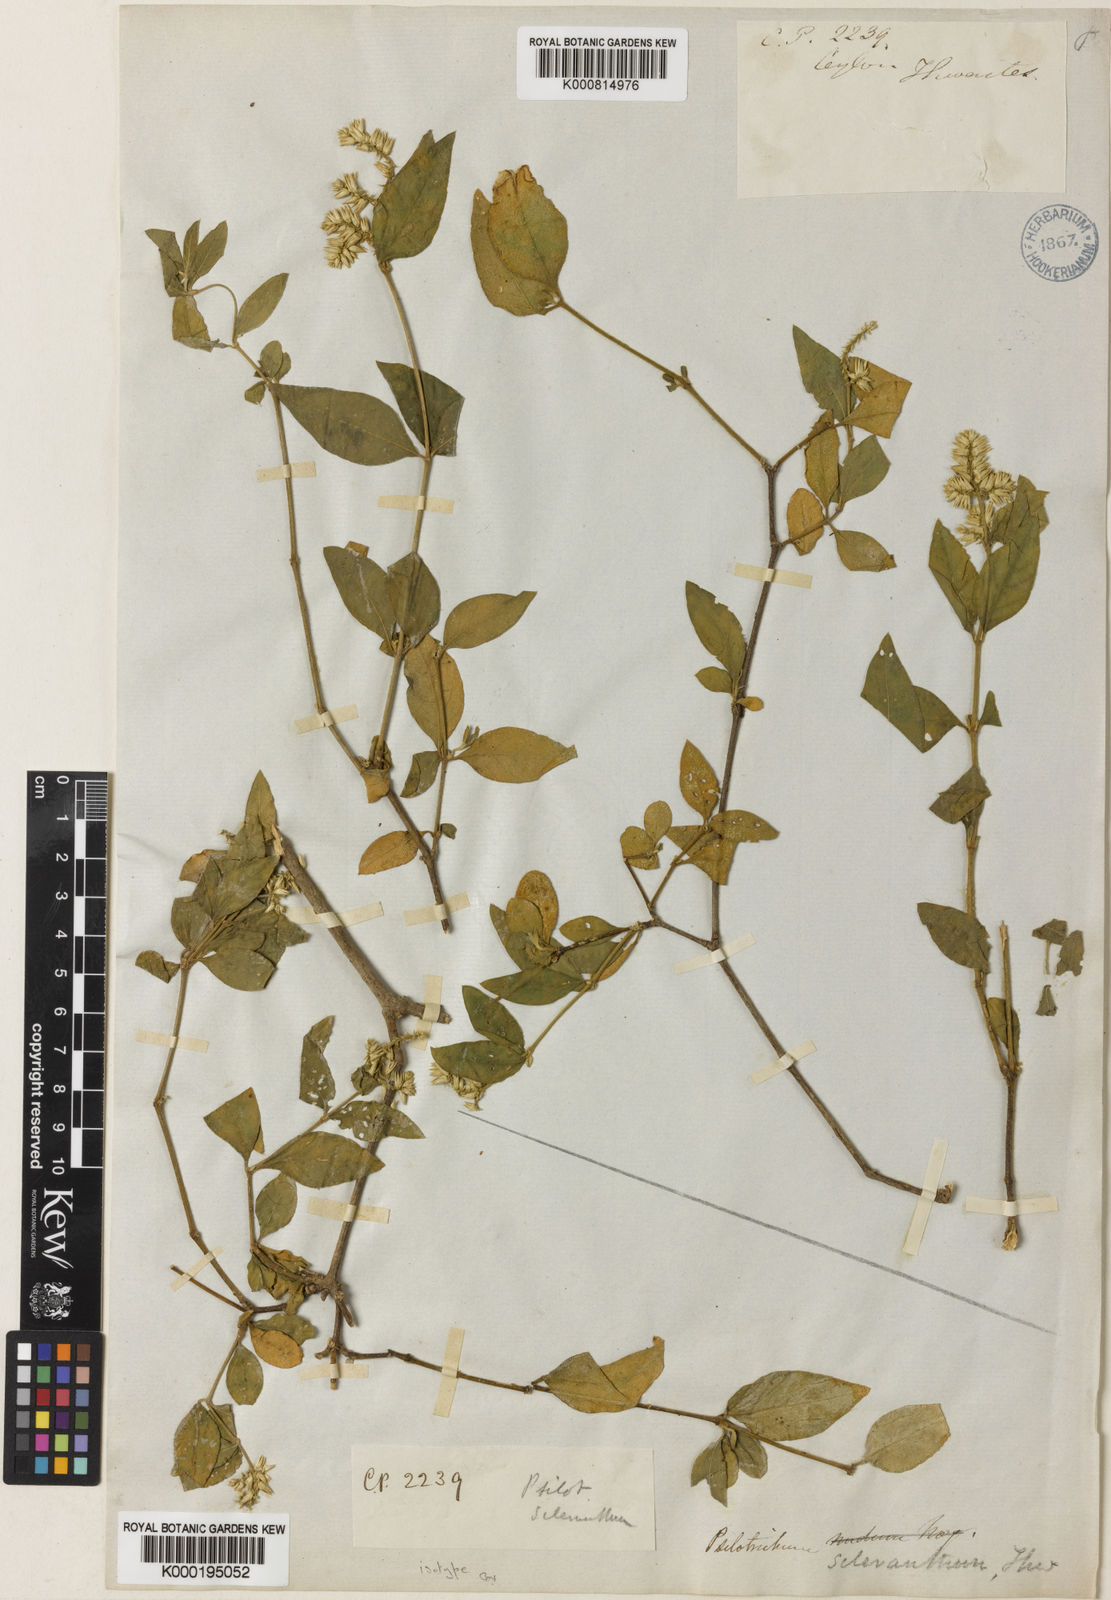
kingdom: Plantae
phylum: Tracheophyta
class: Magnoliopsida
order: Caryophyllales
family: Amaranthaceae
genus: Psilotrichum
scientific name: Psilotrichum scleranthum
